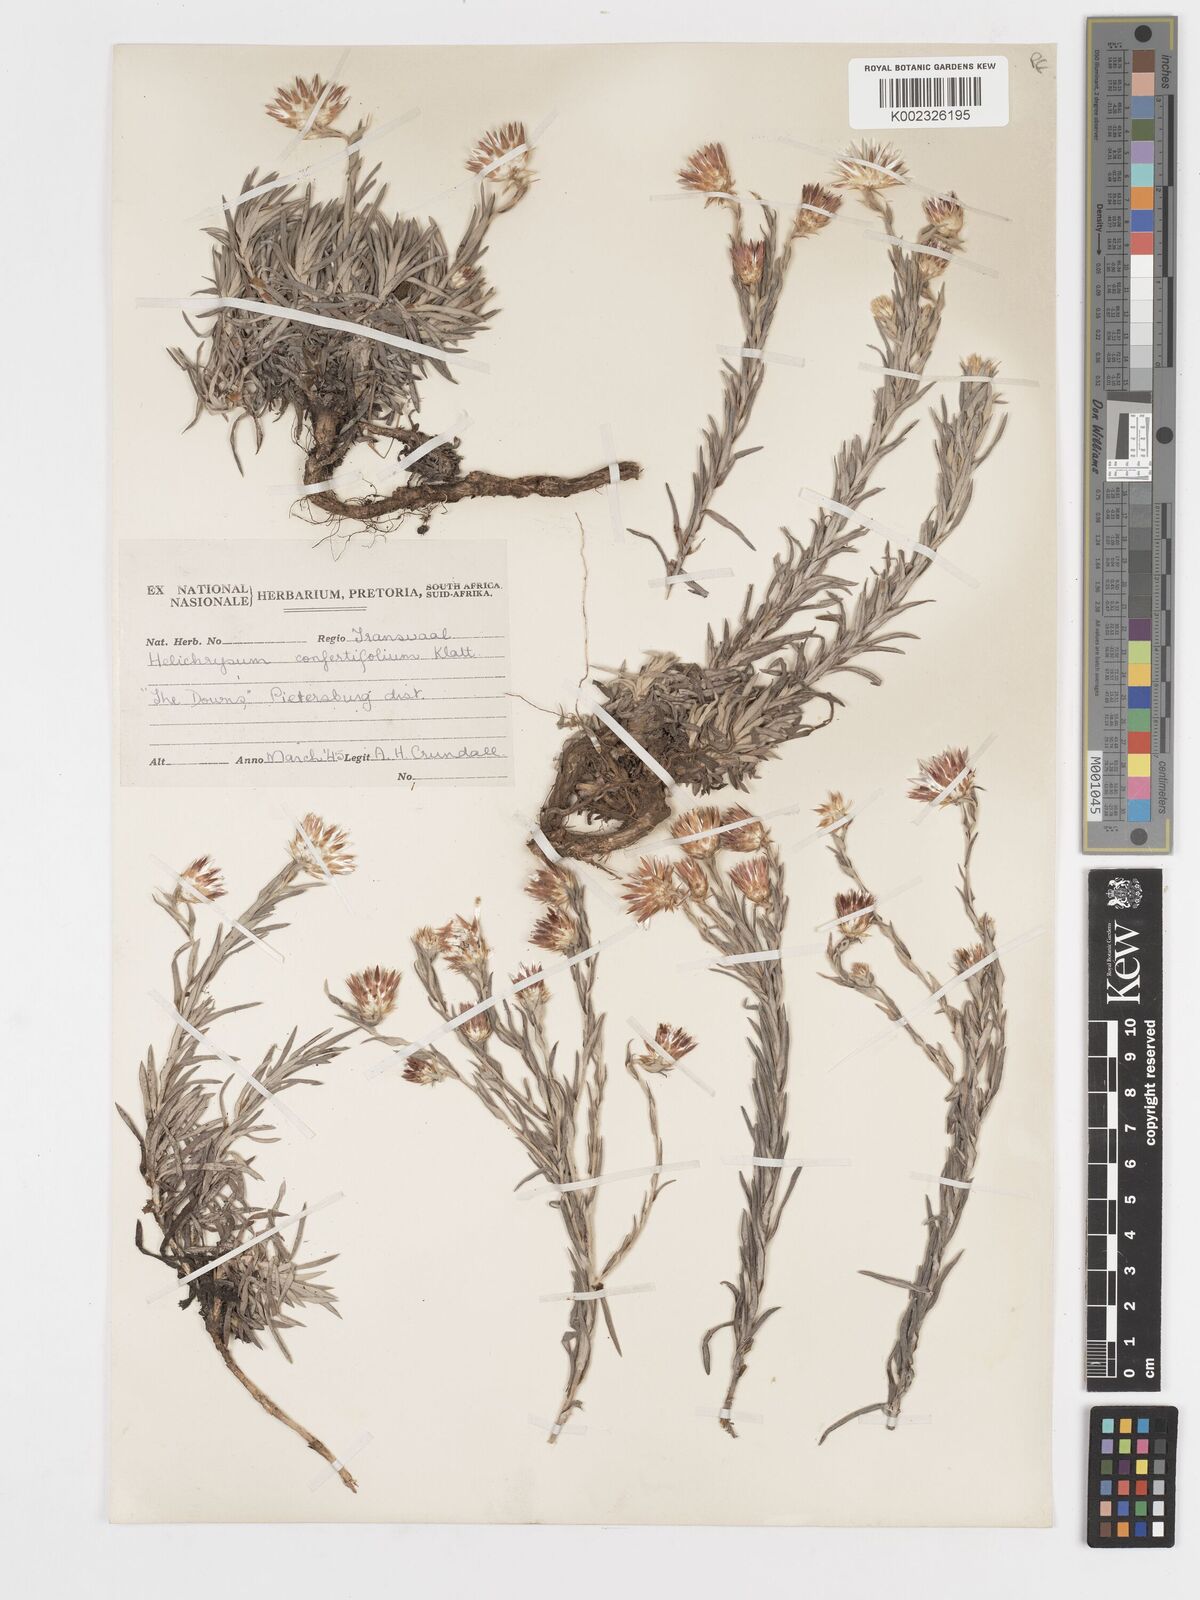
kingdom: Plantae
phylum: Tracheophyta
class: Magnoliopsida
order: Asterales
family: Asteraceae
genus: Helichrysum
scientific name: Helichrysum confertifolium
